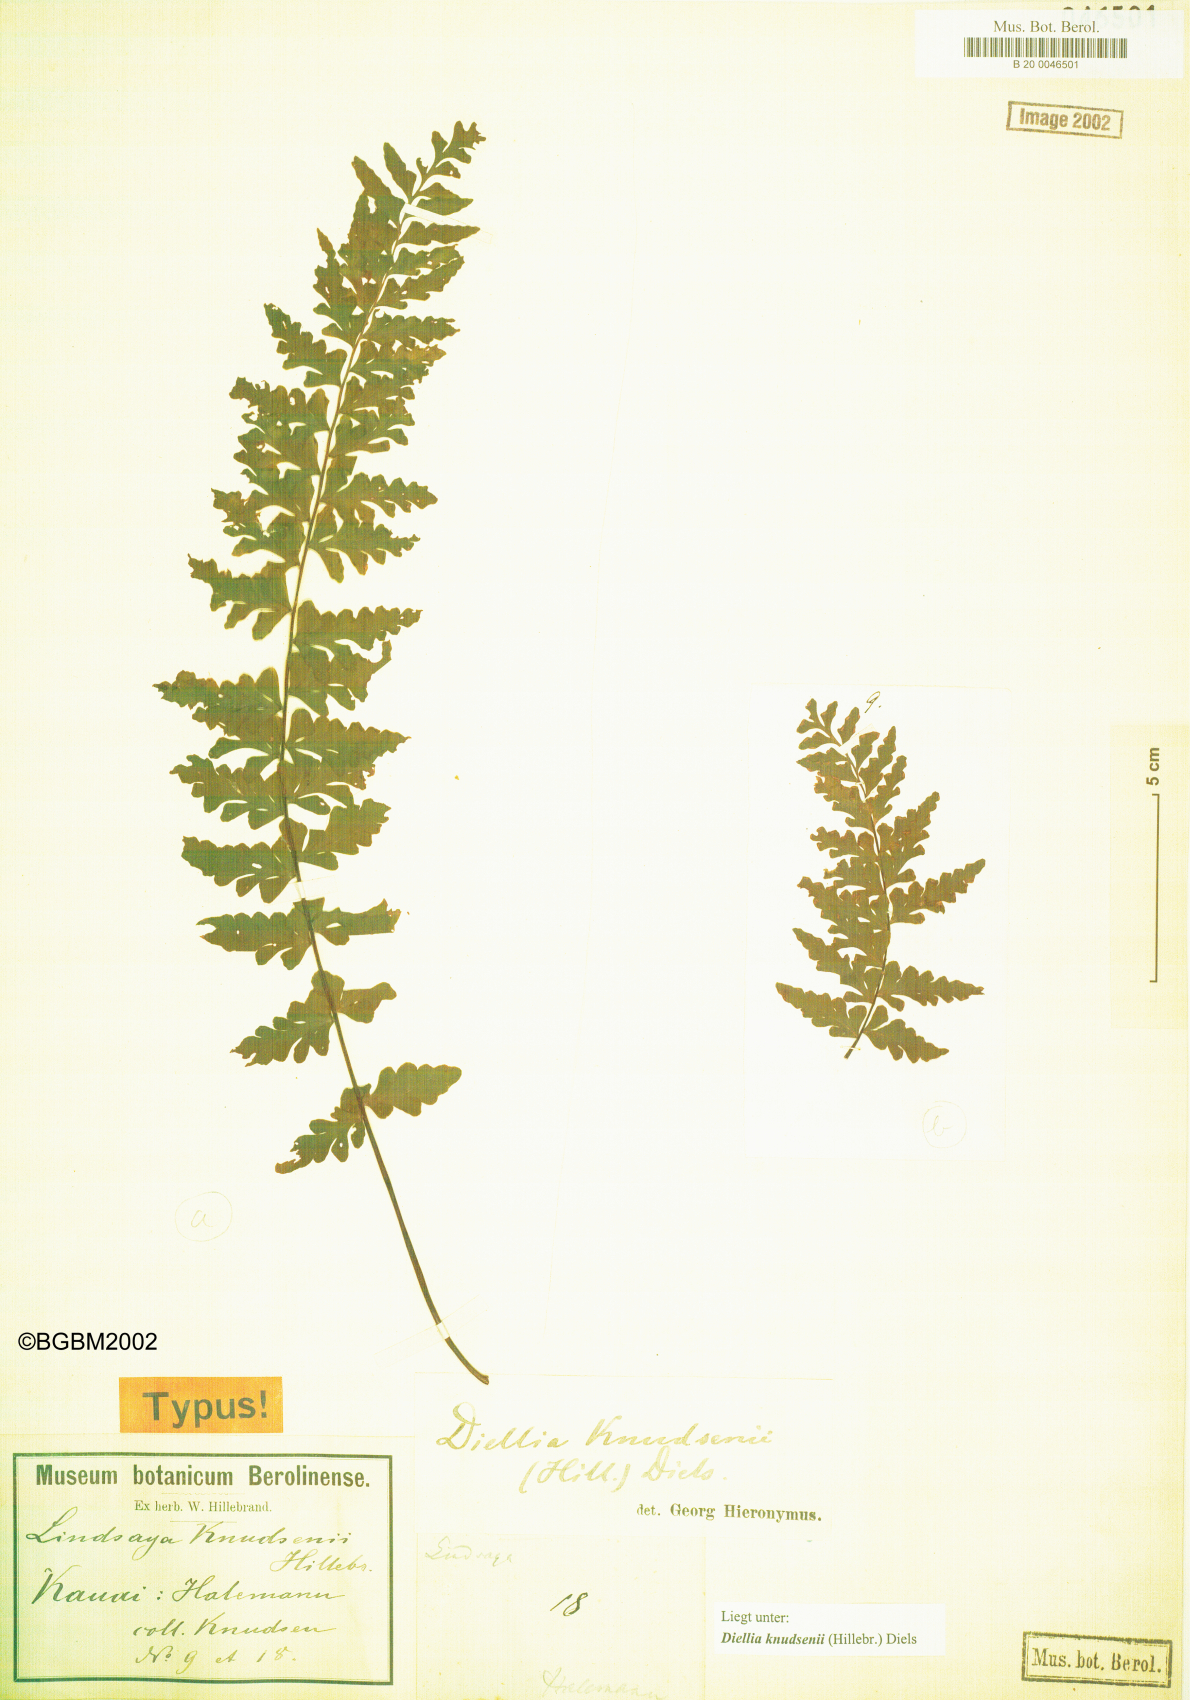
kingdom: Plantae
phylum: Tracheophyta
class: Polypodiopsida
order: Polypodiales
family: Aspleniaceae
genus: Asplenium
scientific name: Asplenium diellaciniatum
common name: Cutleaf island spleenwort
